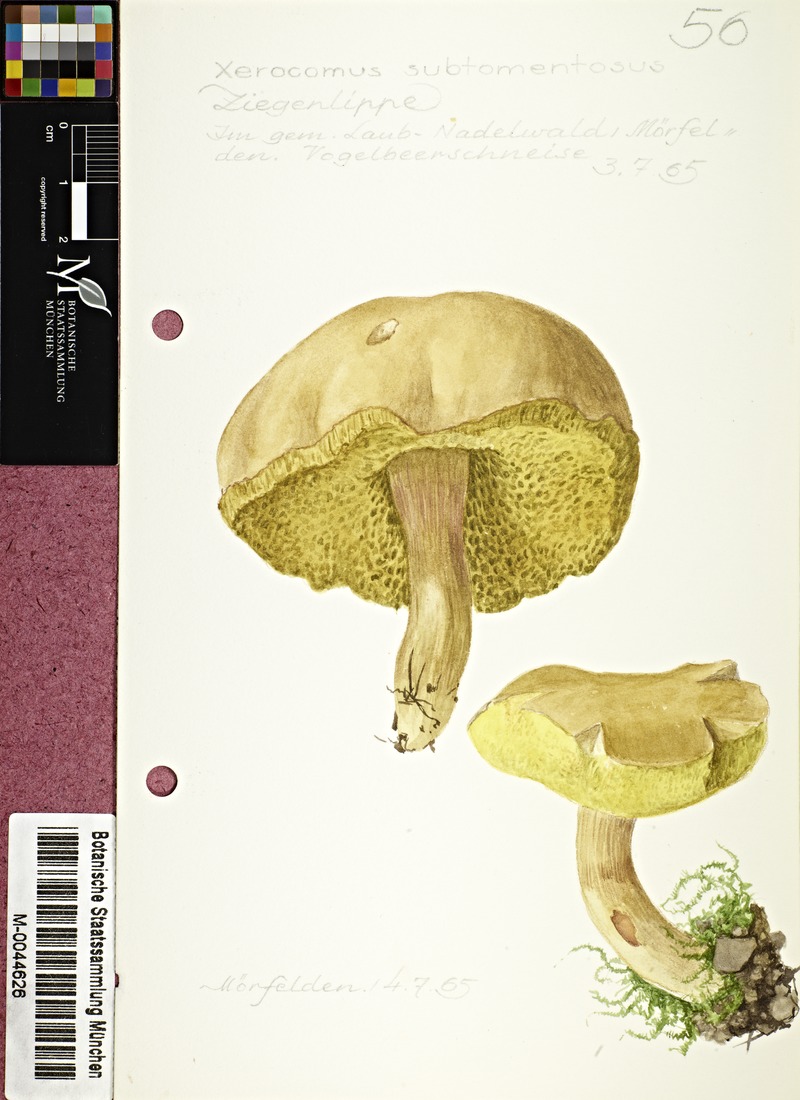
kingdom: Fungi
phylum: Basidiomycota
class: Agaricomycetes
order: Boletales
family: Boletaceae
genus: Xerocomus
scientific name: Xerocomus subtomentosus
